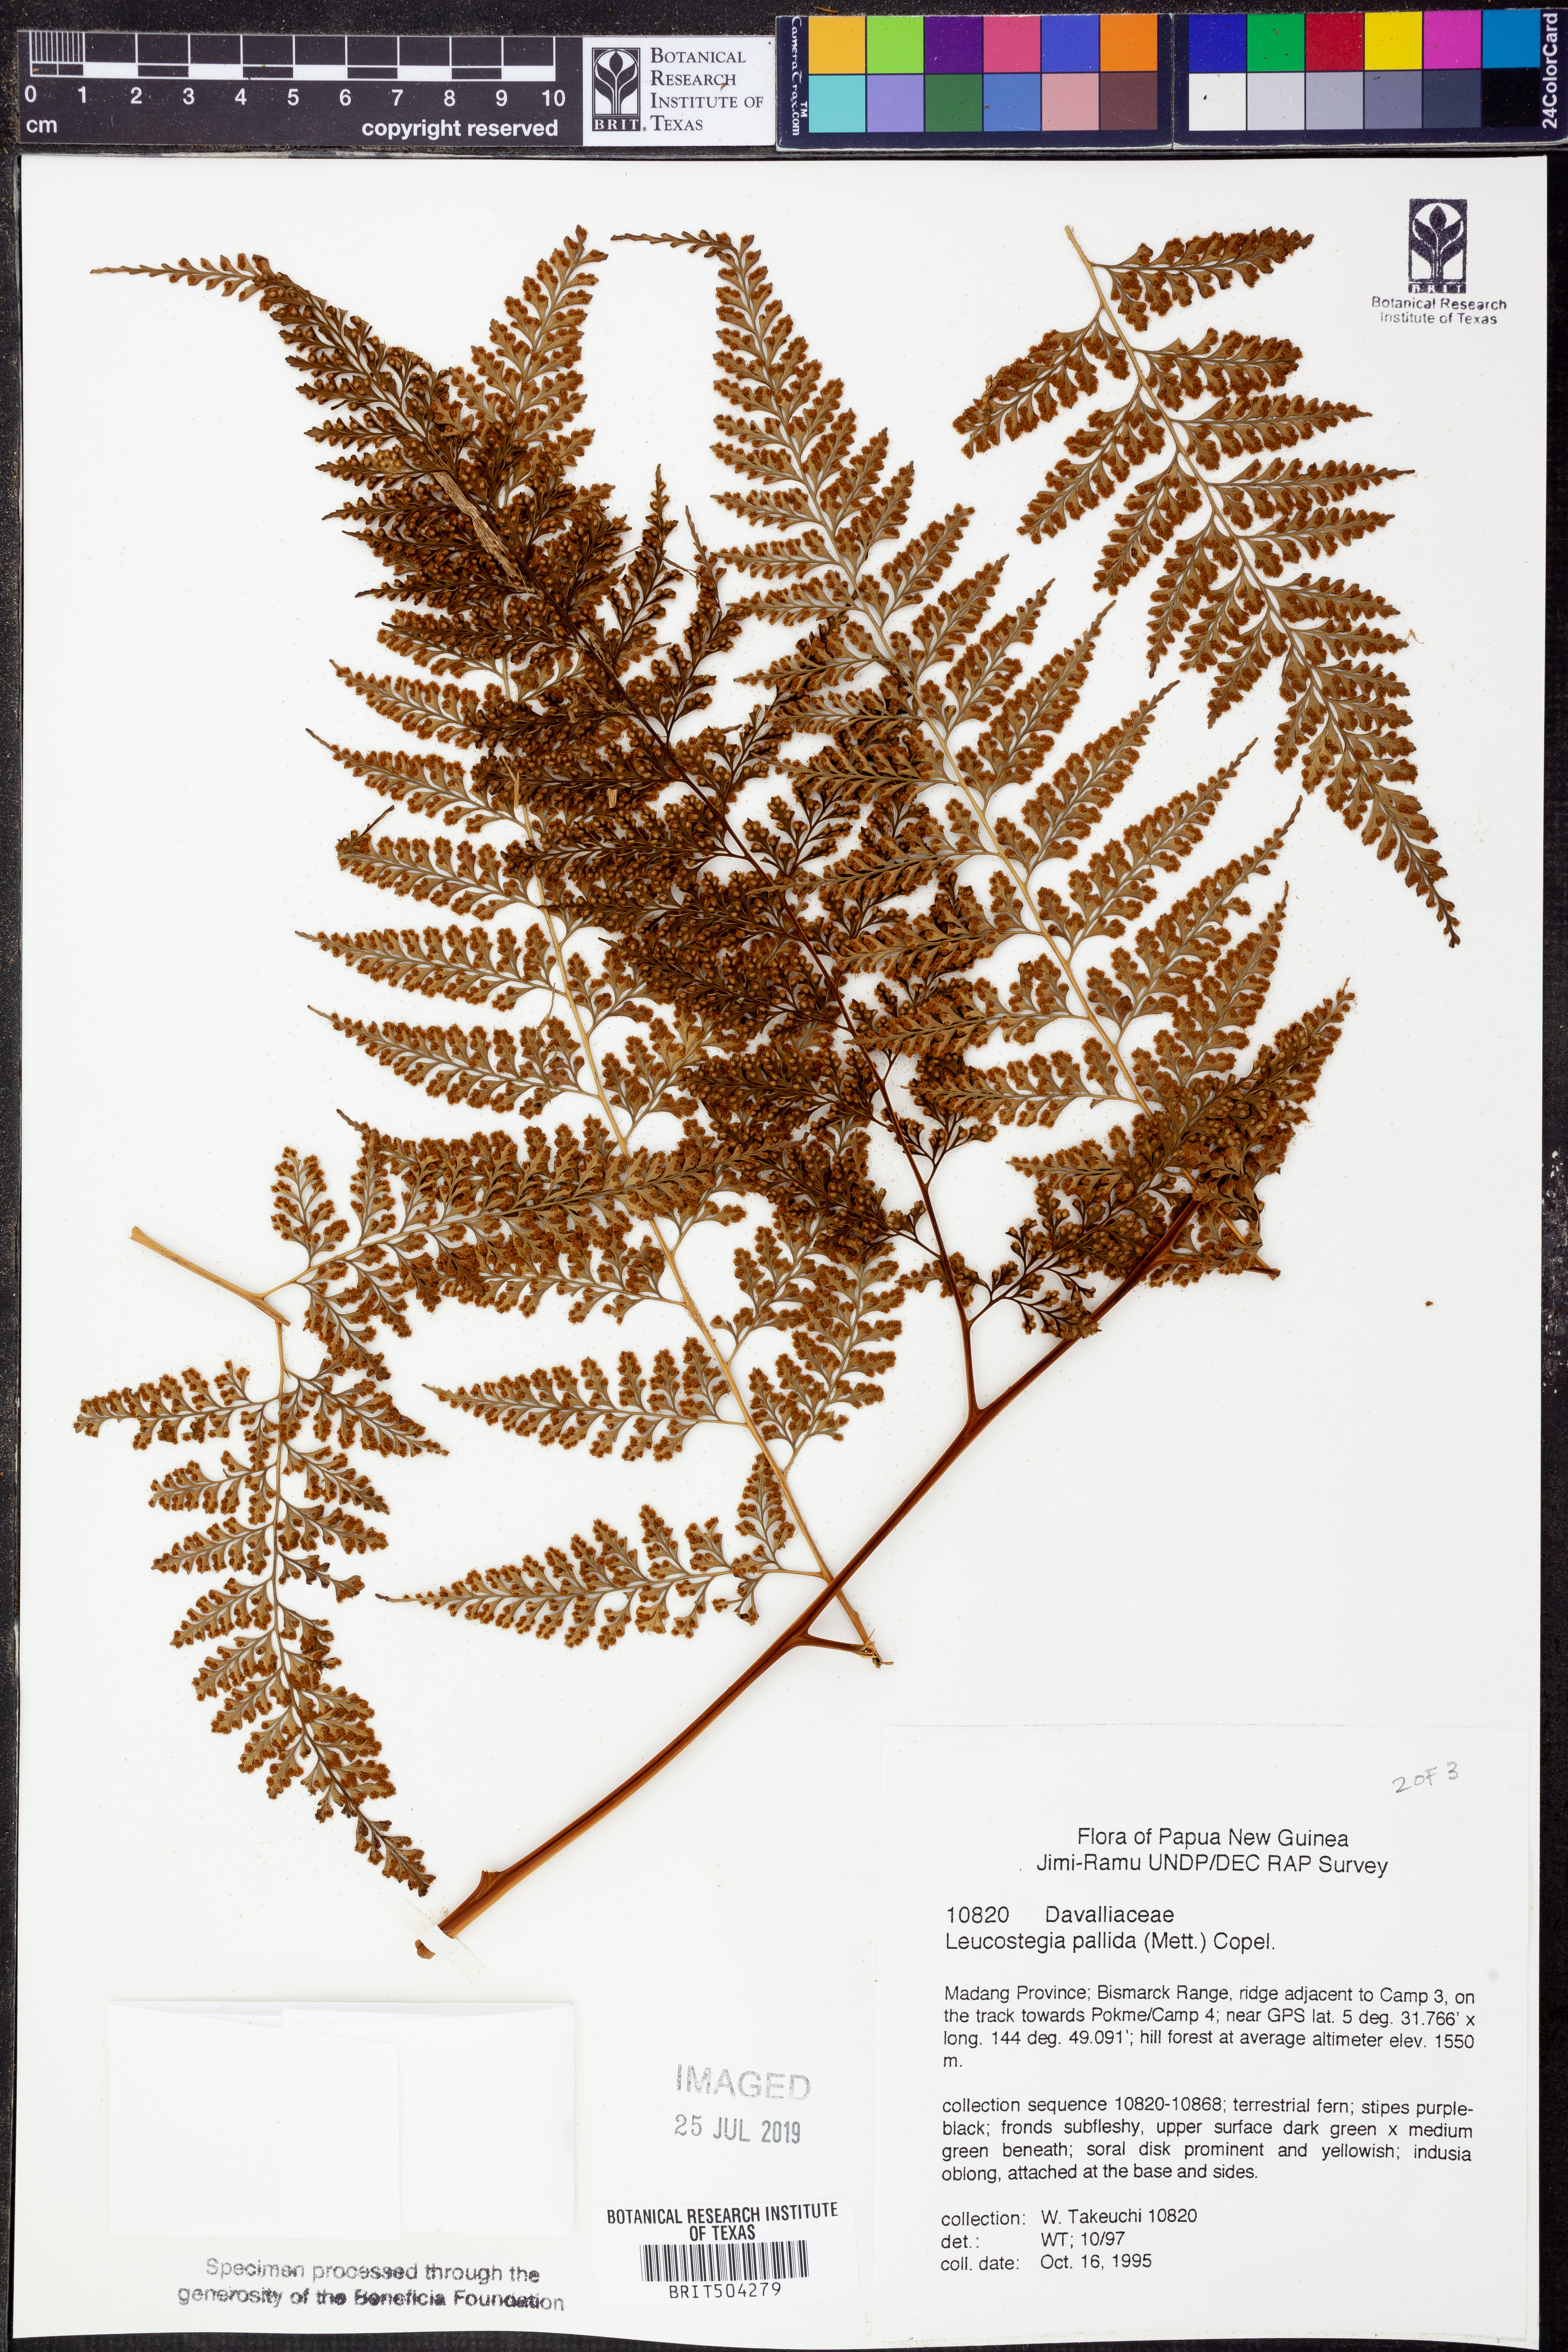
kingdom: Plantae
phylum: Tracheophyta
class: Polypodiopsida
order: Polypodiales
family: Hypodematiaceae
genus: Leucostegia
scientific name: Leucostegia pallida
